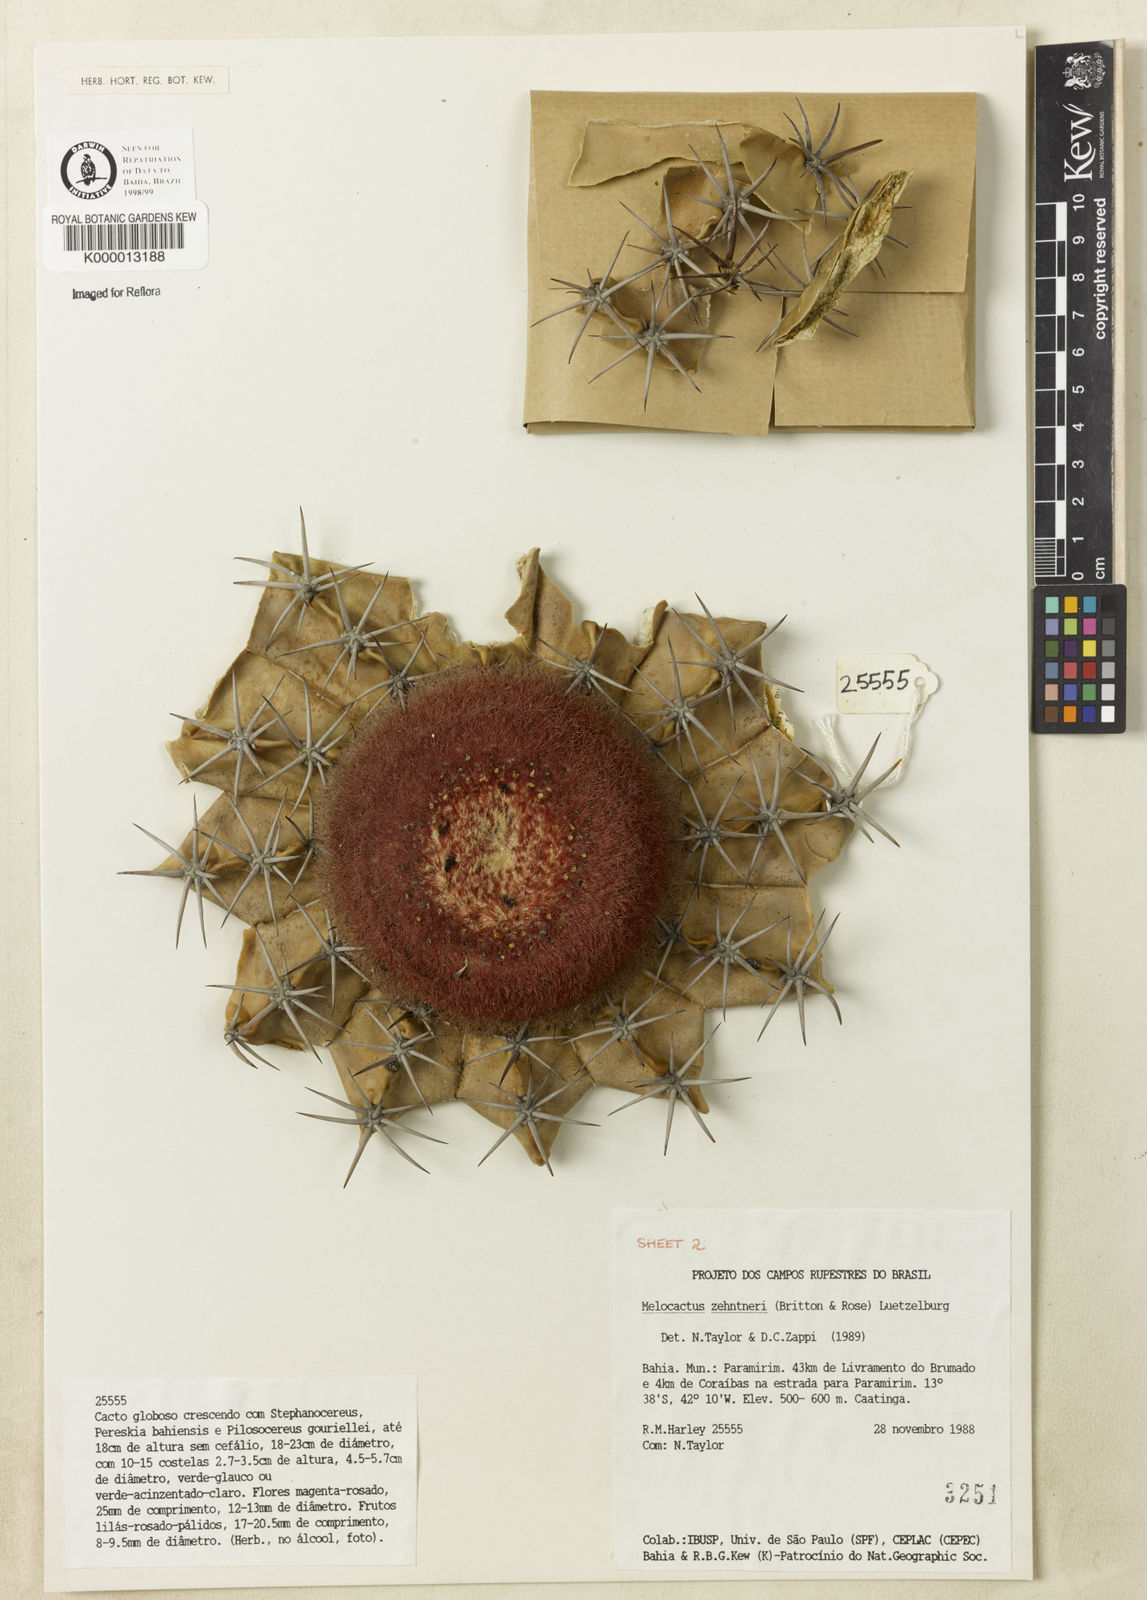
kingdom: Plantae
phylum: Tracheophyta
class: Magnoliopsida
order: Caryophyllales
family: Cactaceae
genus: Melocactus
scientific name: Melocactus zehntneri
